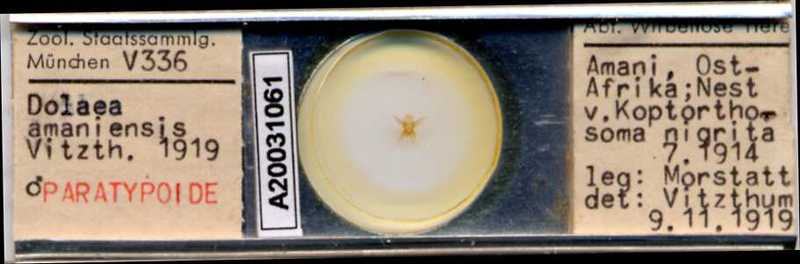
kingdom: Animalia
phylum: Arthropoda
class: Arachnida
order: Mesostigmata
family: Laelapidae
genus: Dinogamasus
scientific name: Dinogamasus
